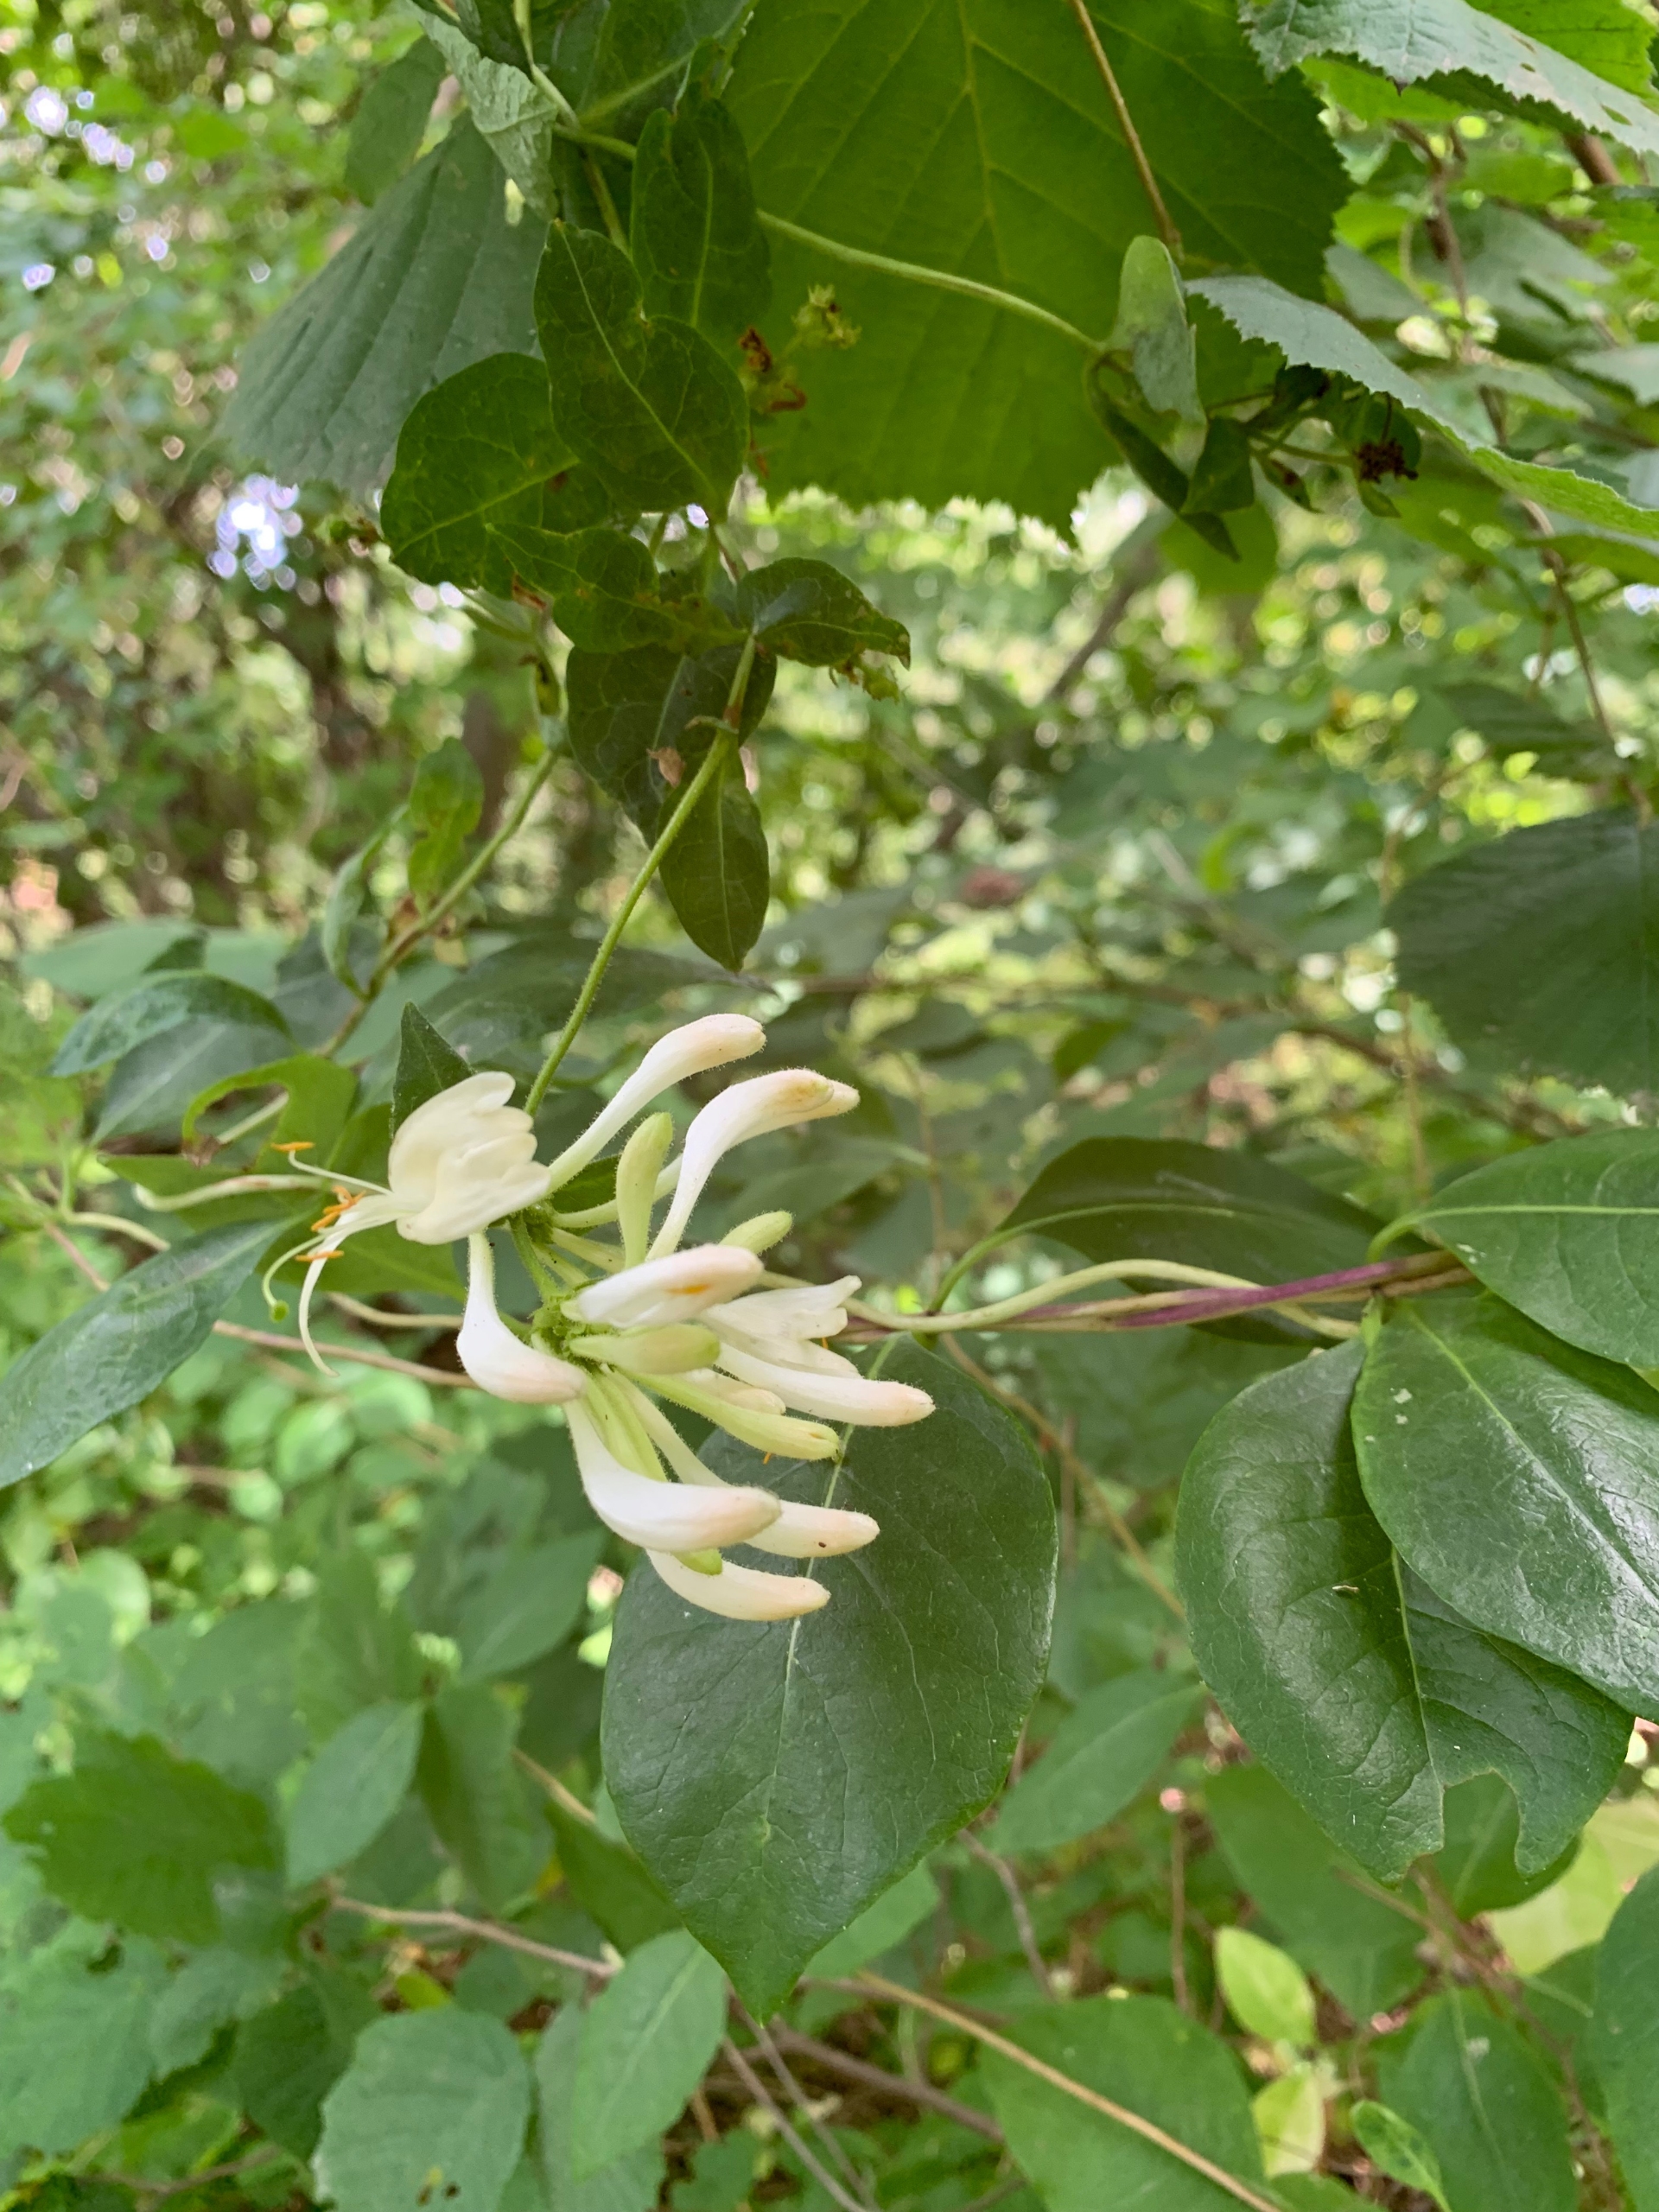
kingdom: Plantae
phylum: Tracheophyta
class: Magnoliopsida
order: Dipsacales
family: Caprifoliaceae
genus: Lonicera
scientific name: Lonicera periclymenum
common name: Almindelig gedeblad
